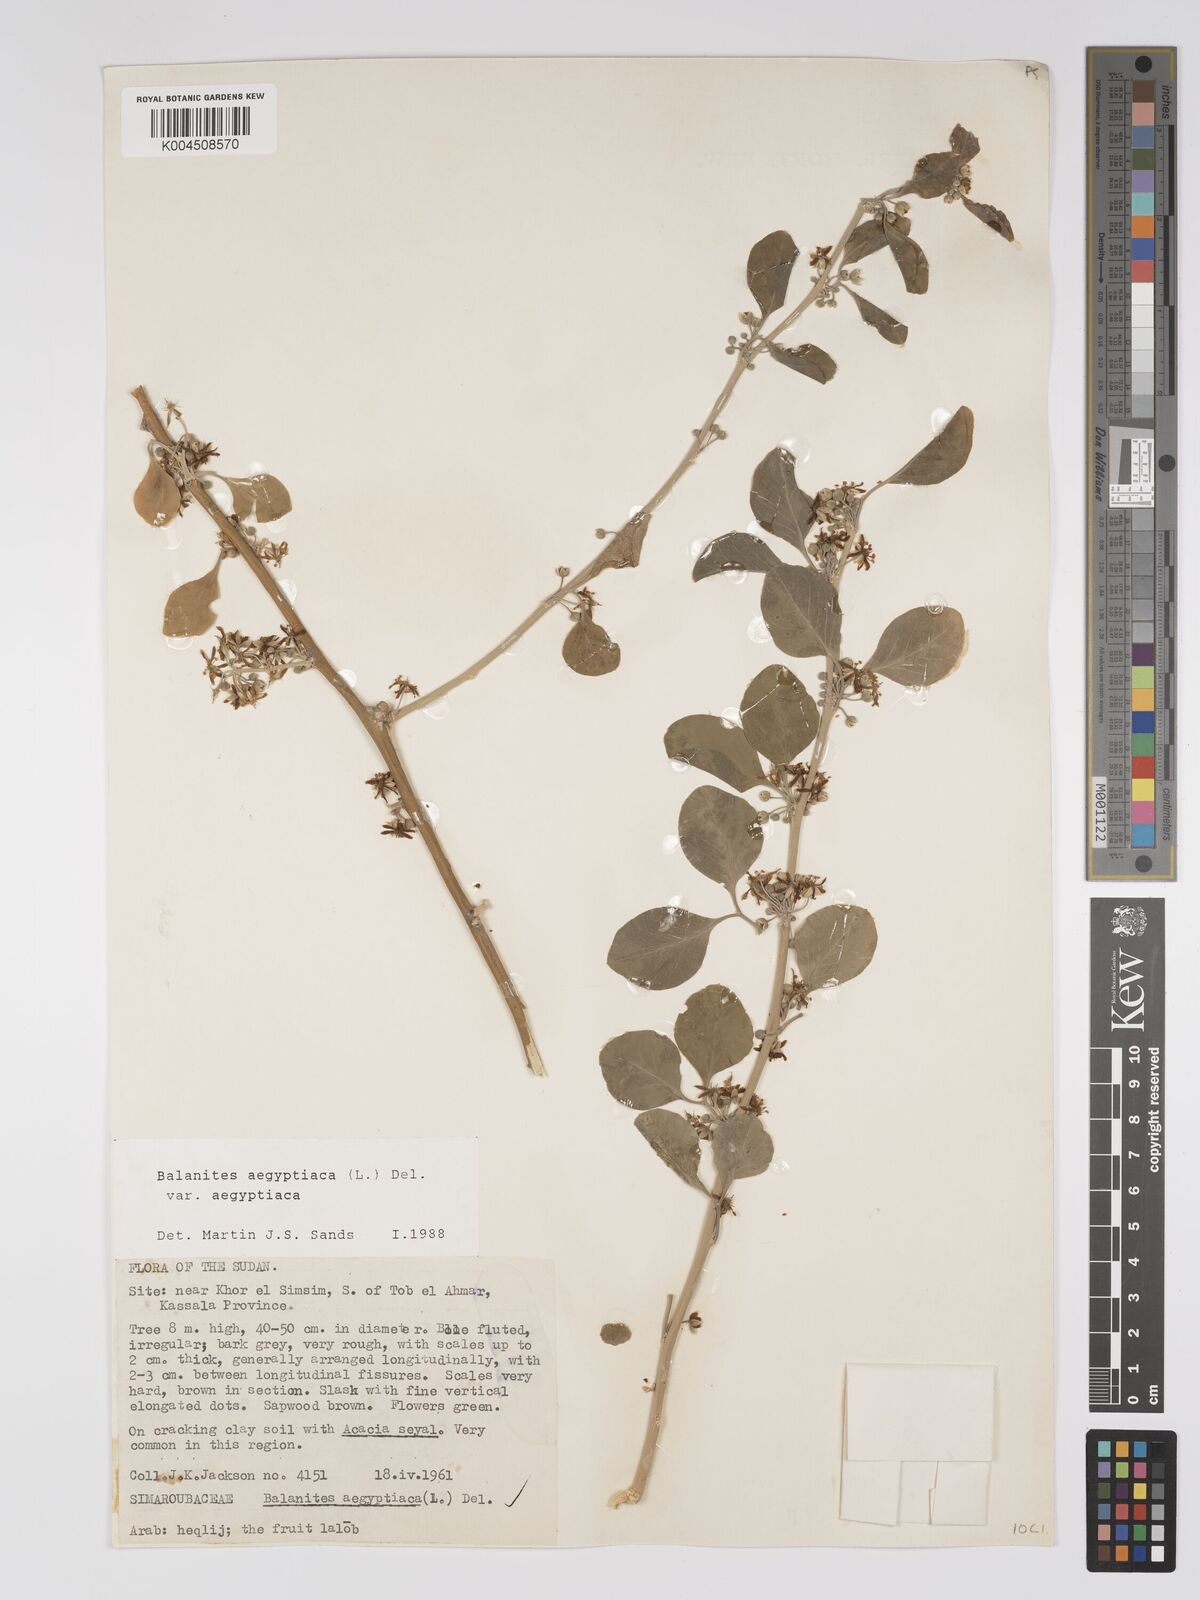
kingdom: Plantae
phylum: Tracheophyta
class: Magnoliopsida
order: Zygophyllales
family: Zygophyllaceae
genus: Balanites
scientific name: Balanites aegyptiaca
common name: Balanites
